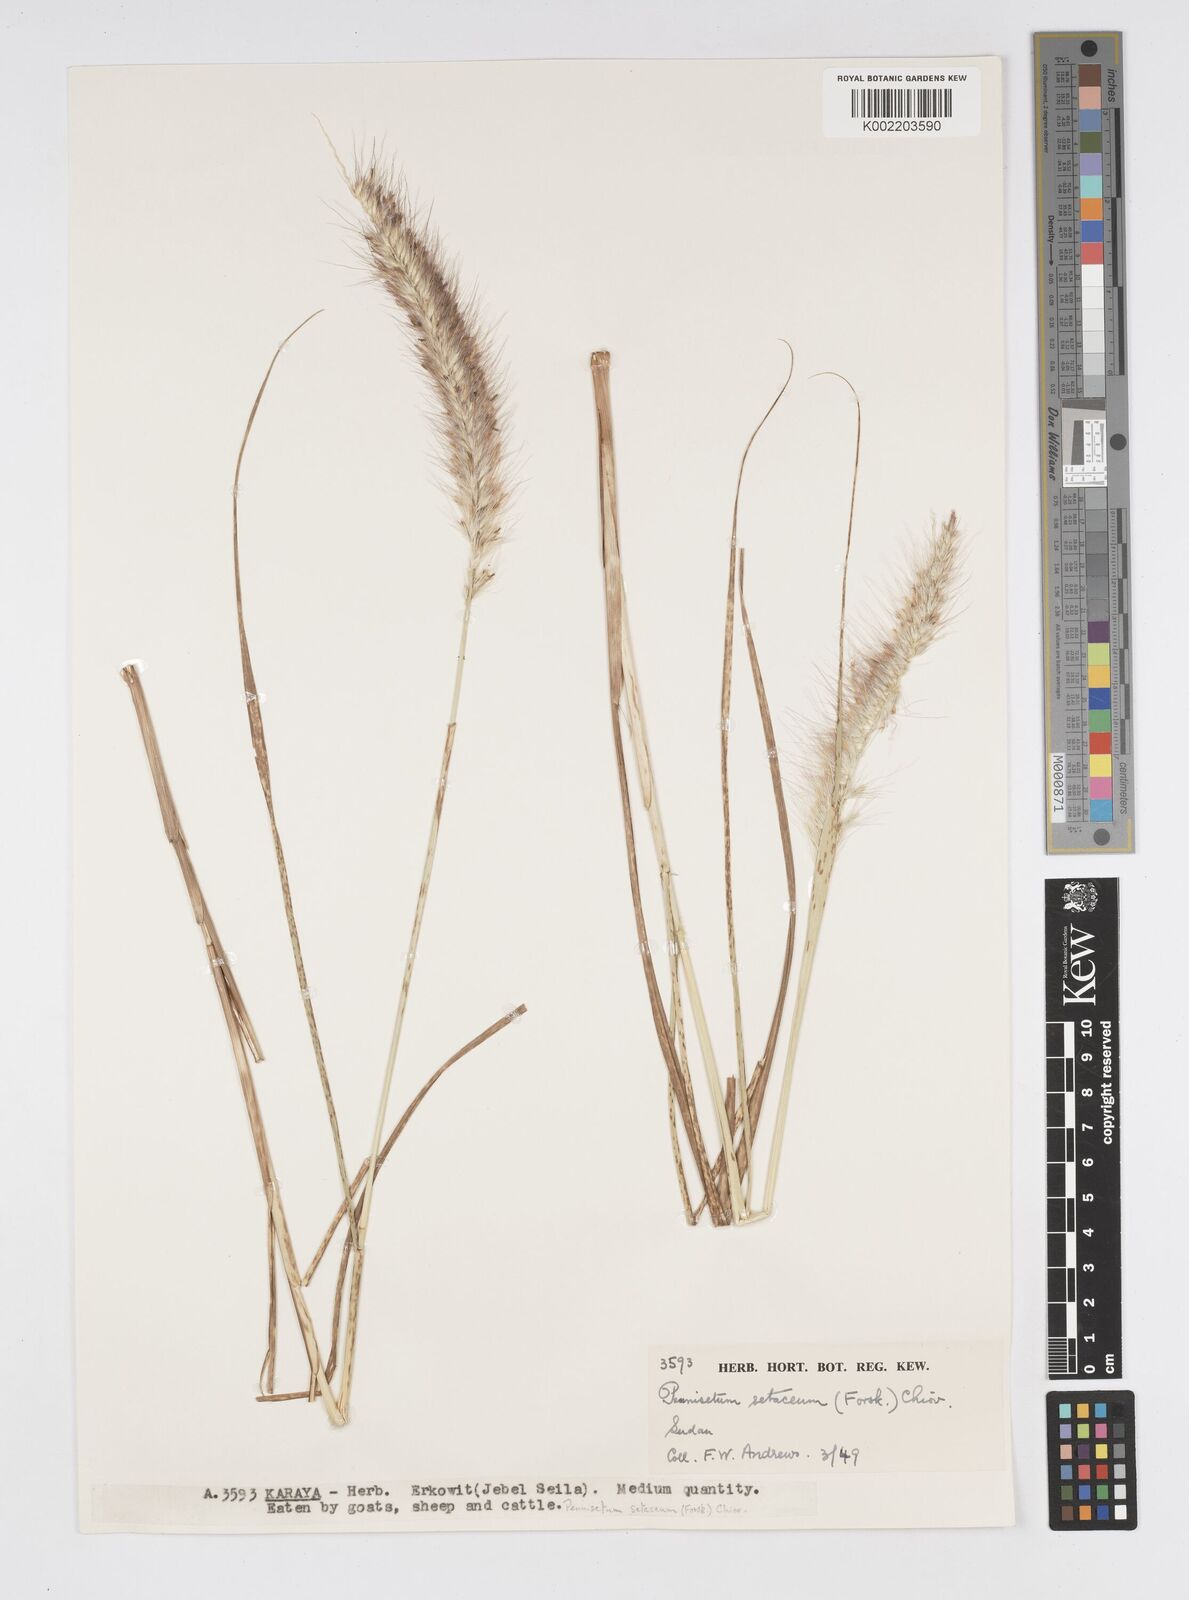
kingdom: Plantae
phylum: Tracheophyta
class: Liliopsida
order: Poales
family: Poaceae
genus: Cenchrus
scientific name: Cenchrus setaceus
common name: Crimson fountaingrass
